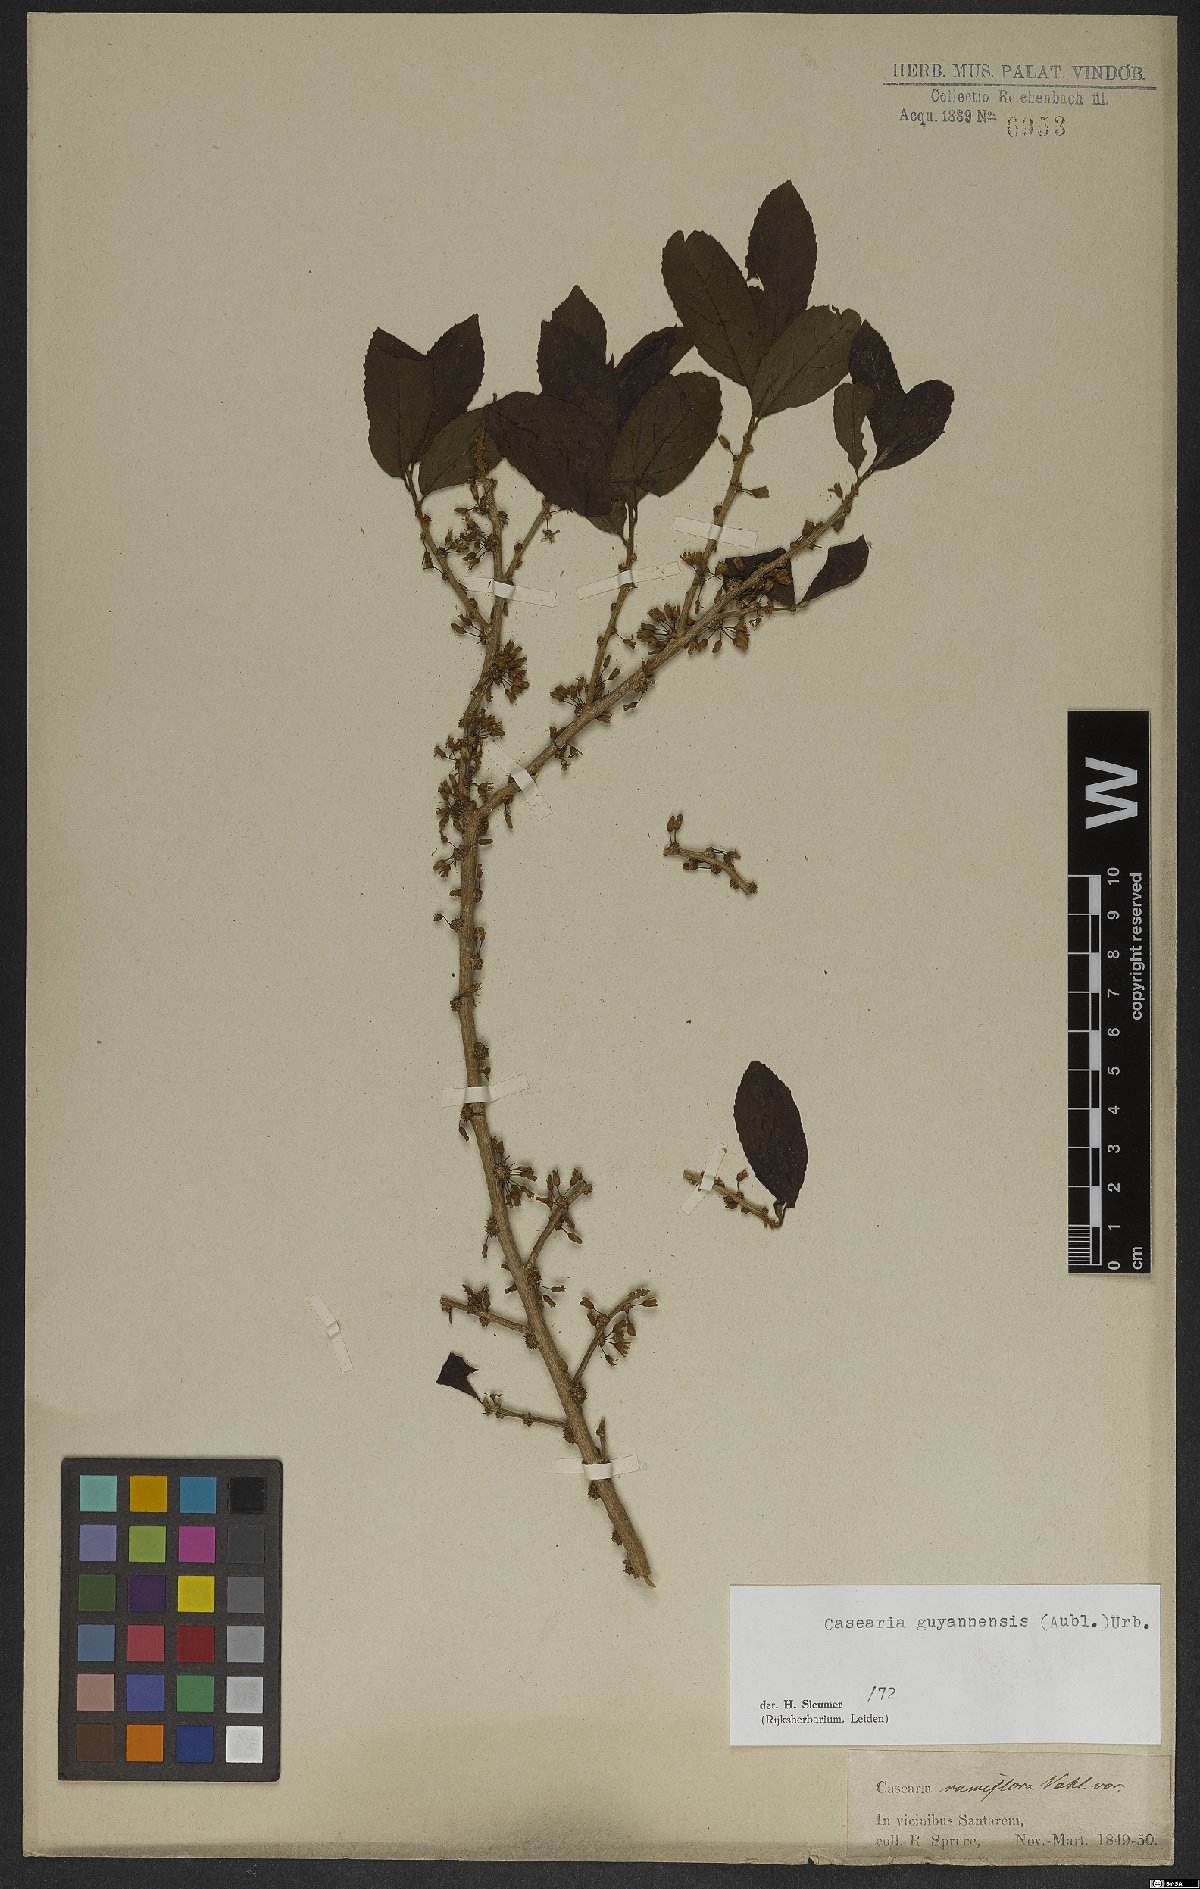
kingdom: Plantae
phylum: Tracheophyta
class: Magnoliopsida
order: Malpighiales
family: Salicaceae
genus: Casearia
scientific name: Casearia guianensis
